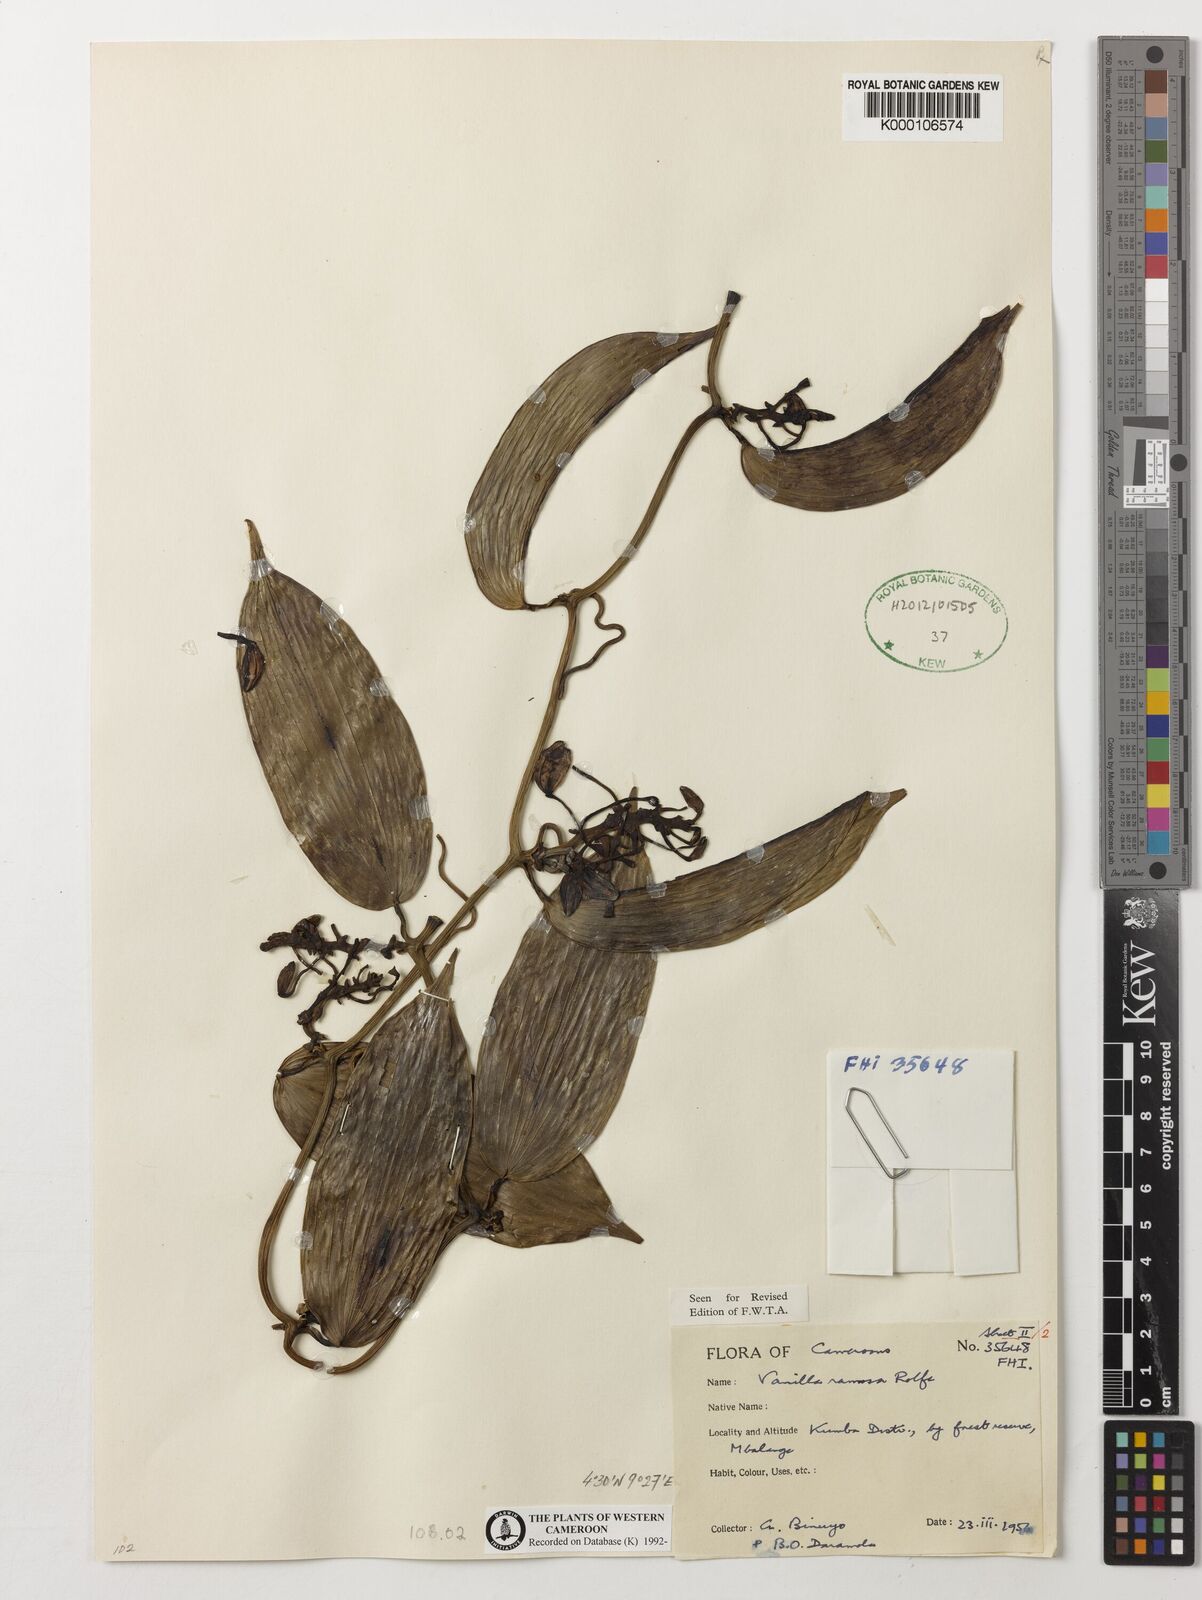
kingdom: Plantae
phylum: Tracheophyta
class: Liliopsida
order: Asparagales
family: Orchidaceae
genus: Vanilla
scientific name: Vanilla ramosa
